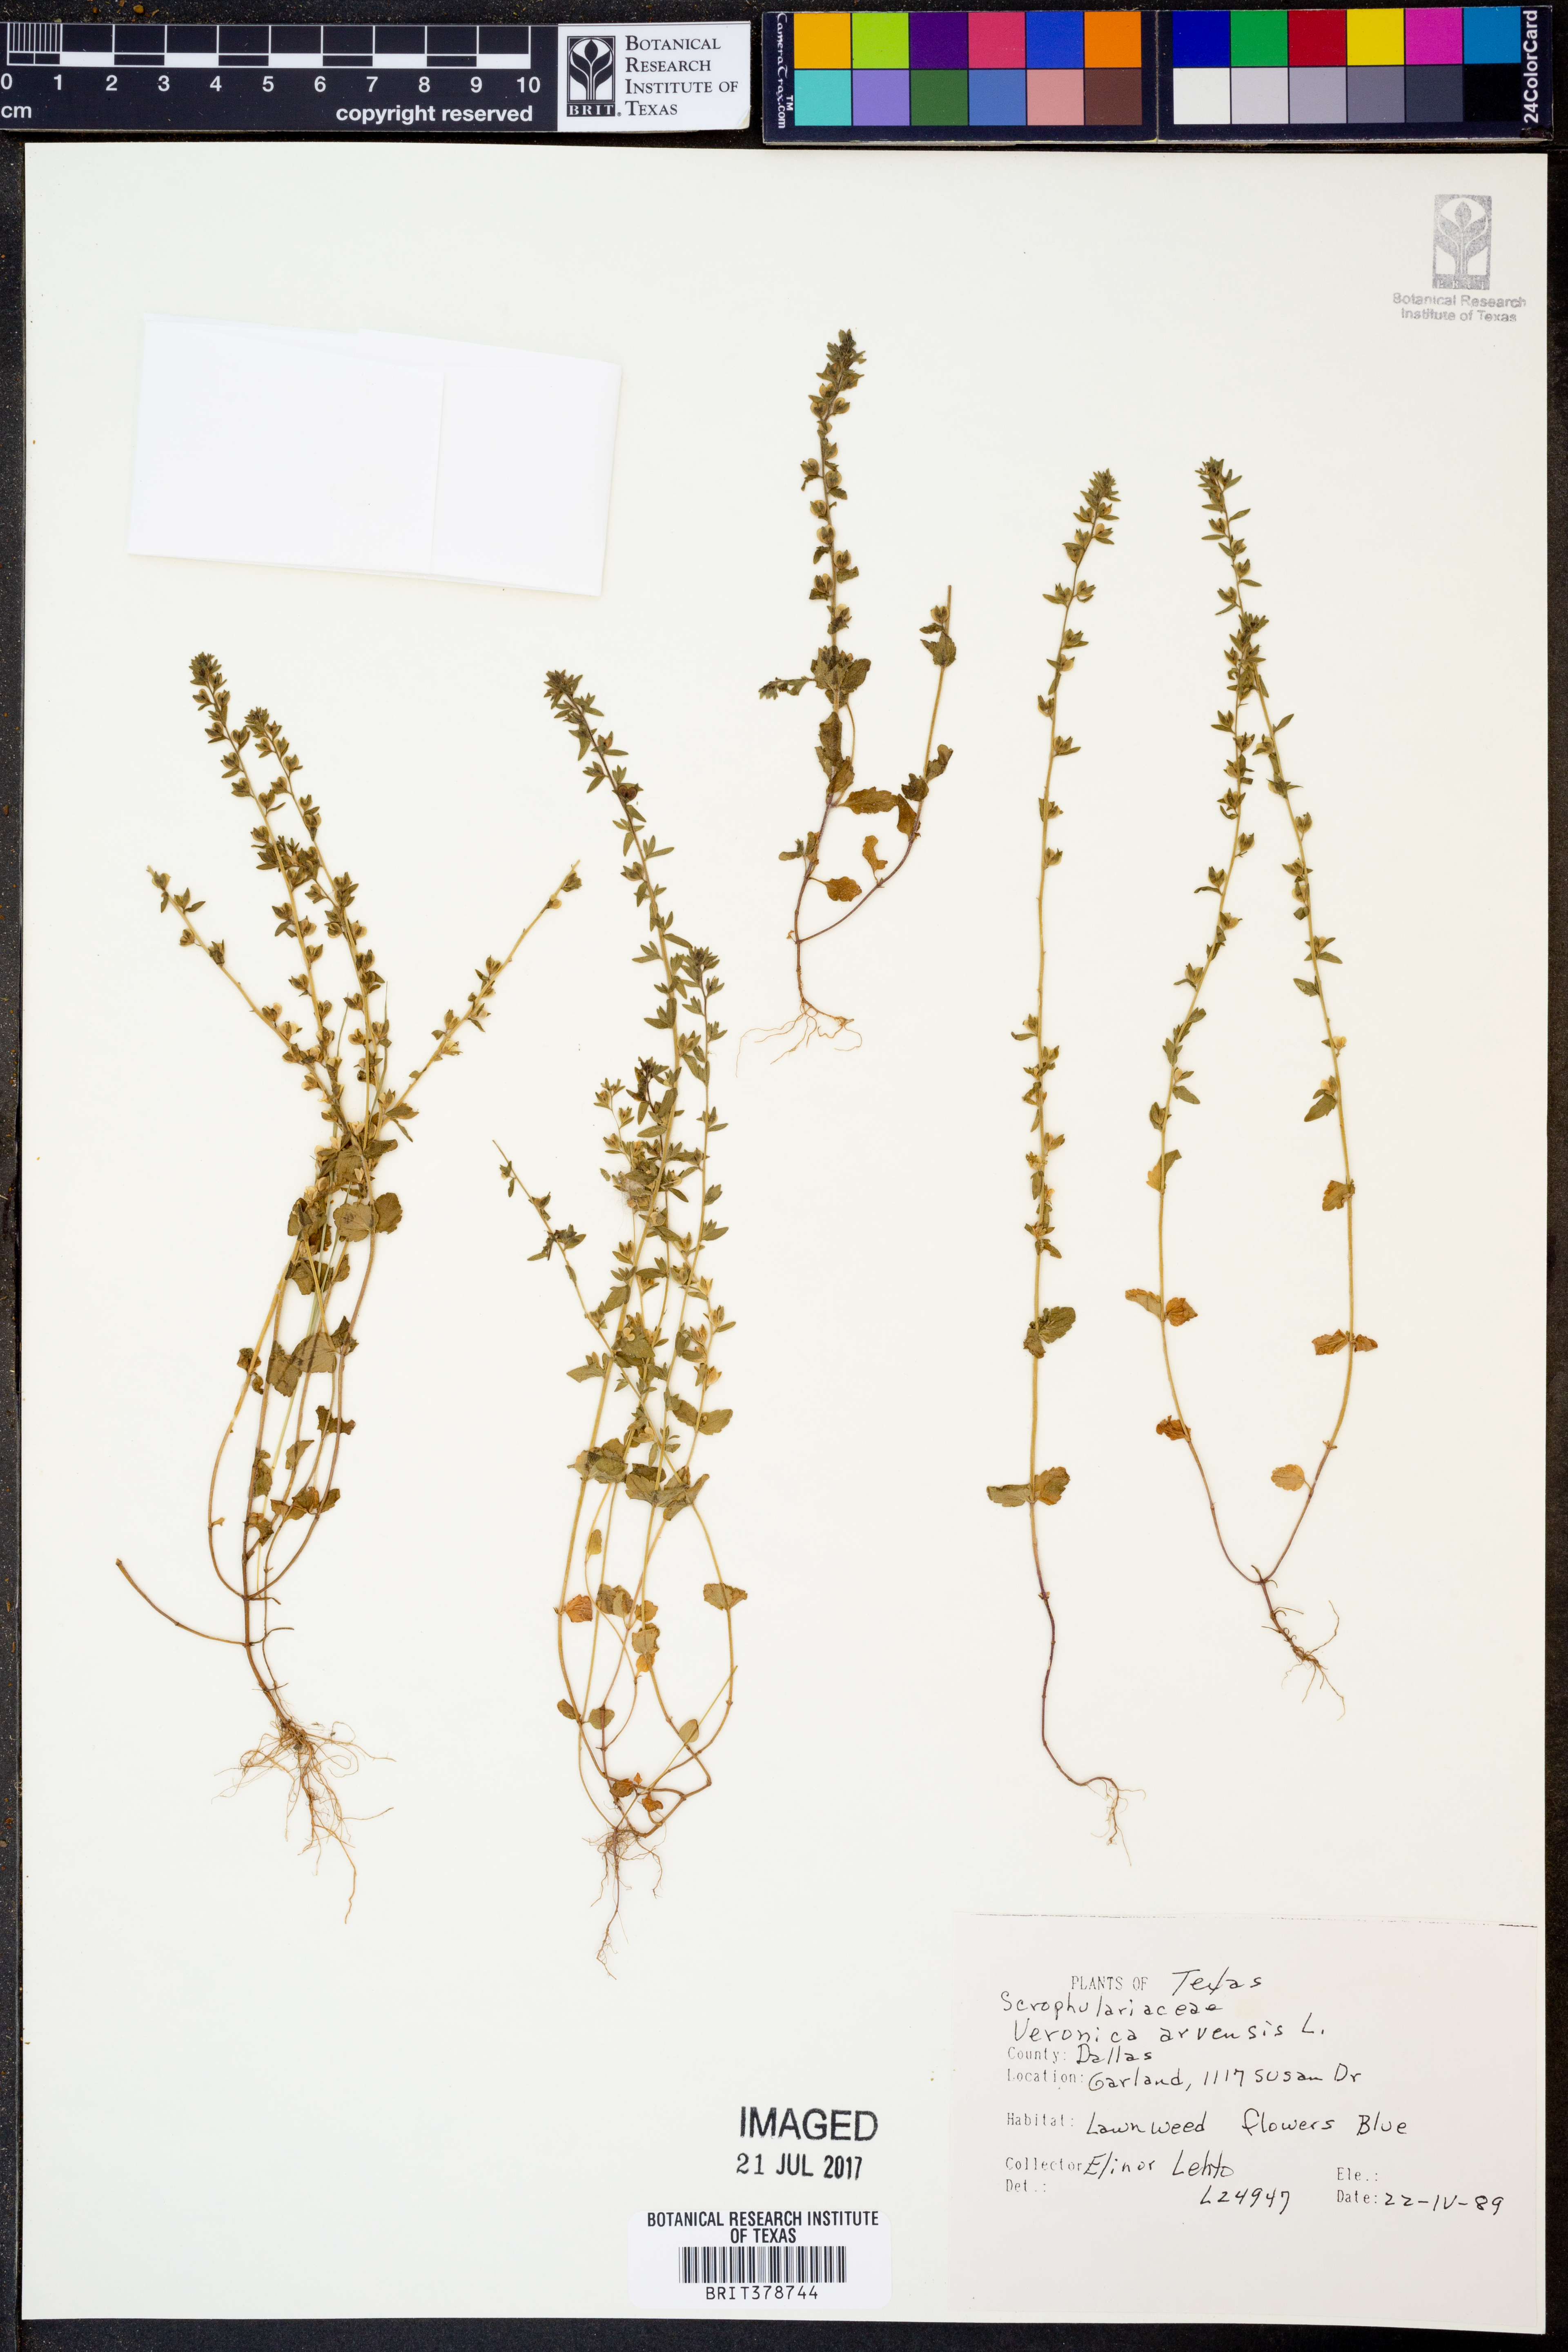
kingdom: Plantae
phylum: Tracheophyta
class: Magnoliopsida
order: Lamiales
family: Plantaginaceae
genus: Veronica
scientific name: Veronica arvensis
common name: Corn speedwell
